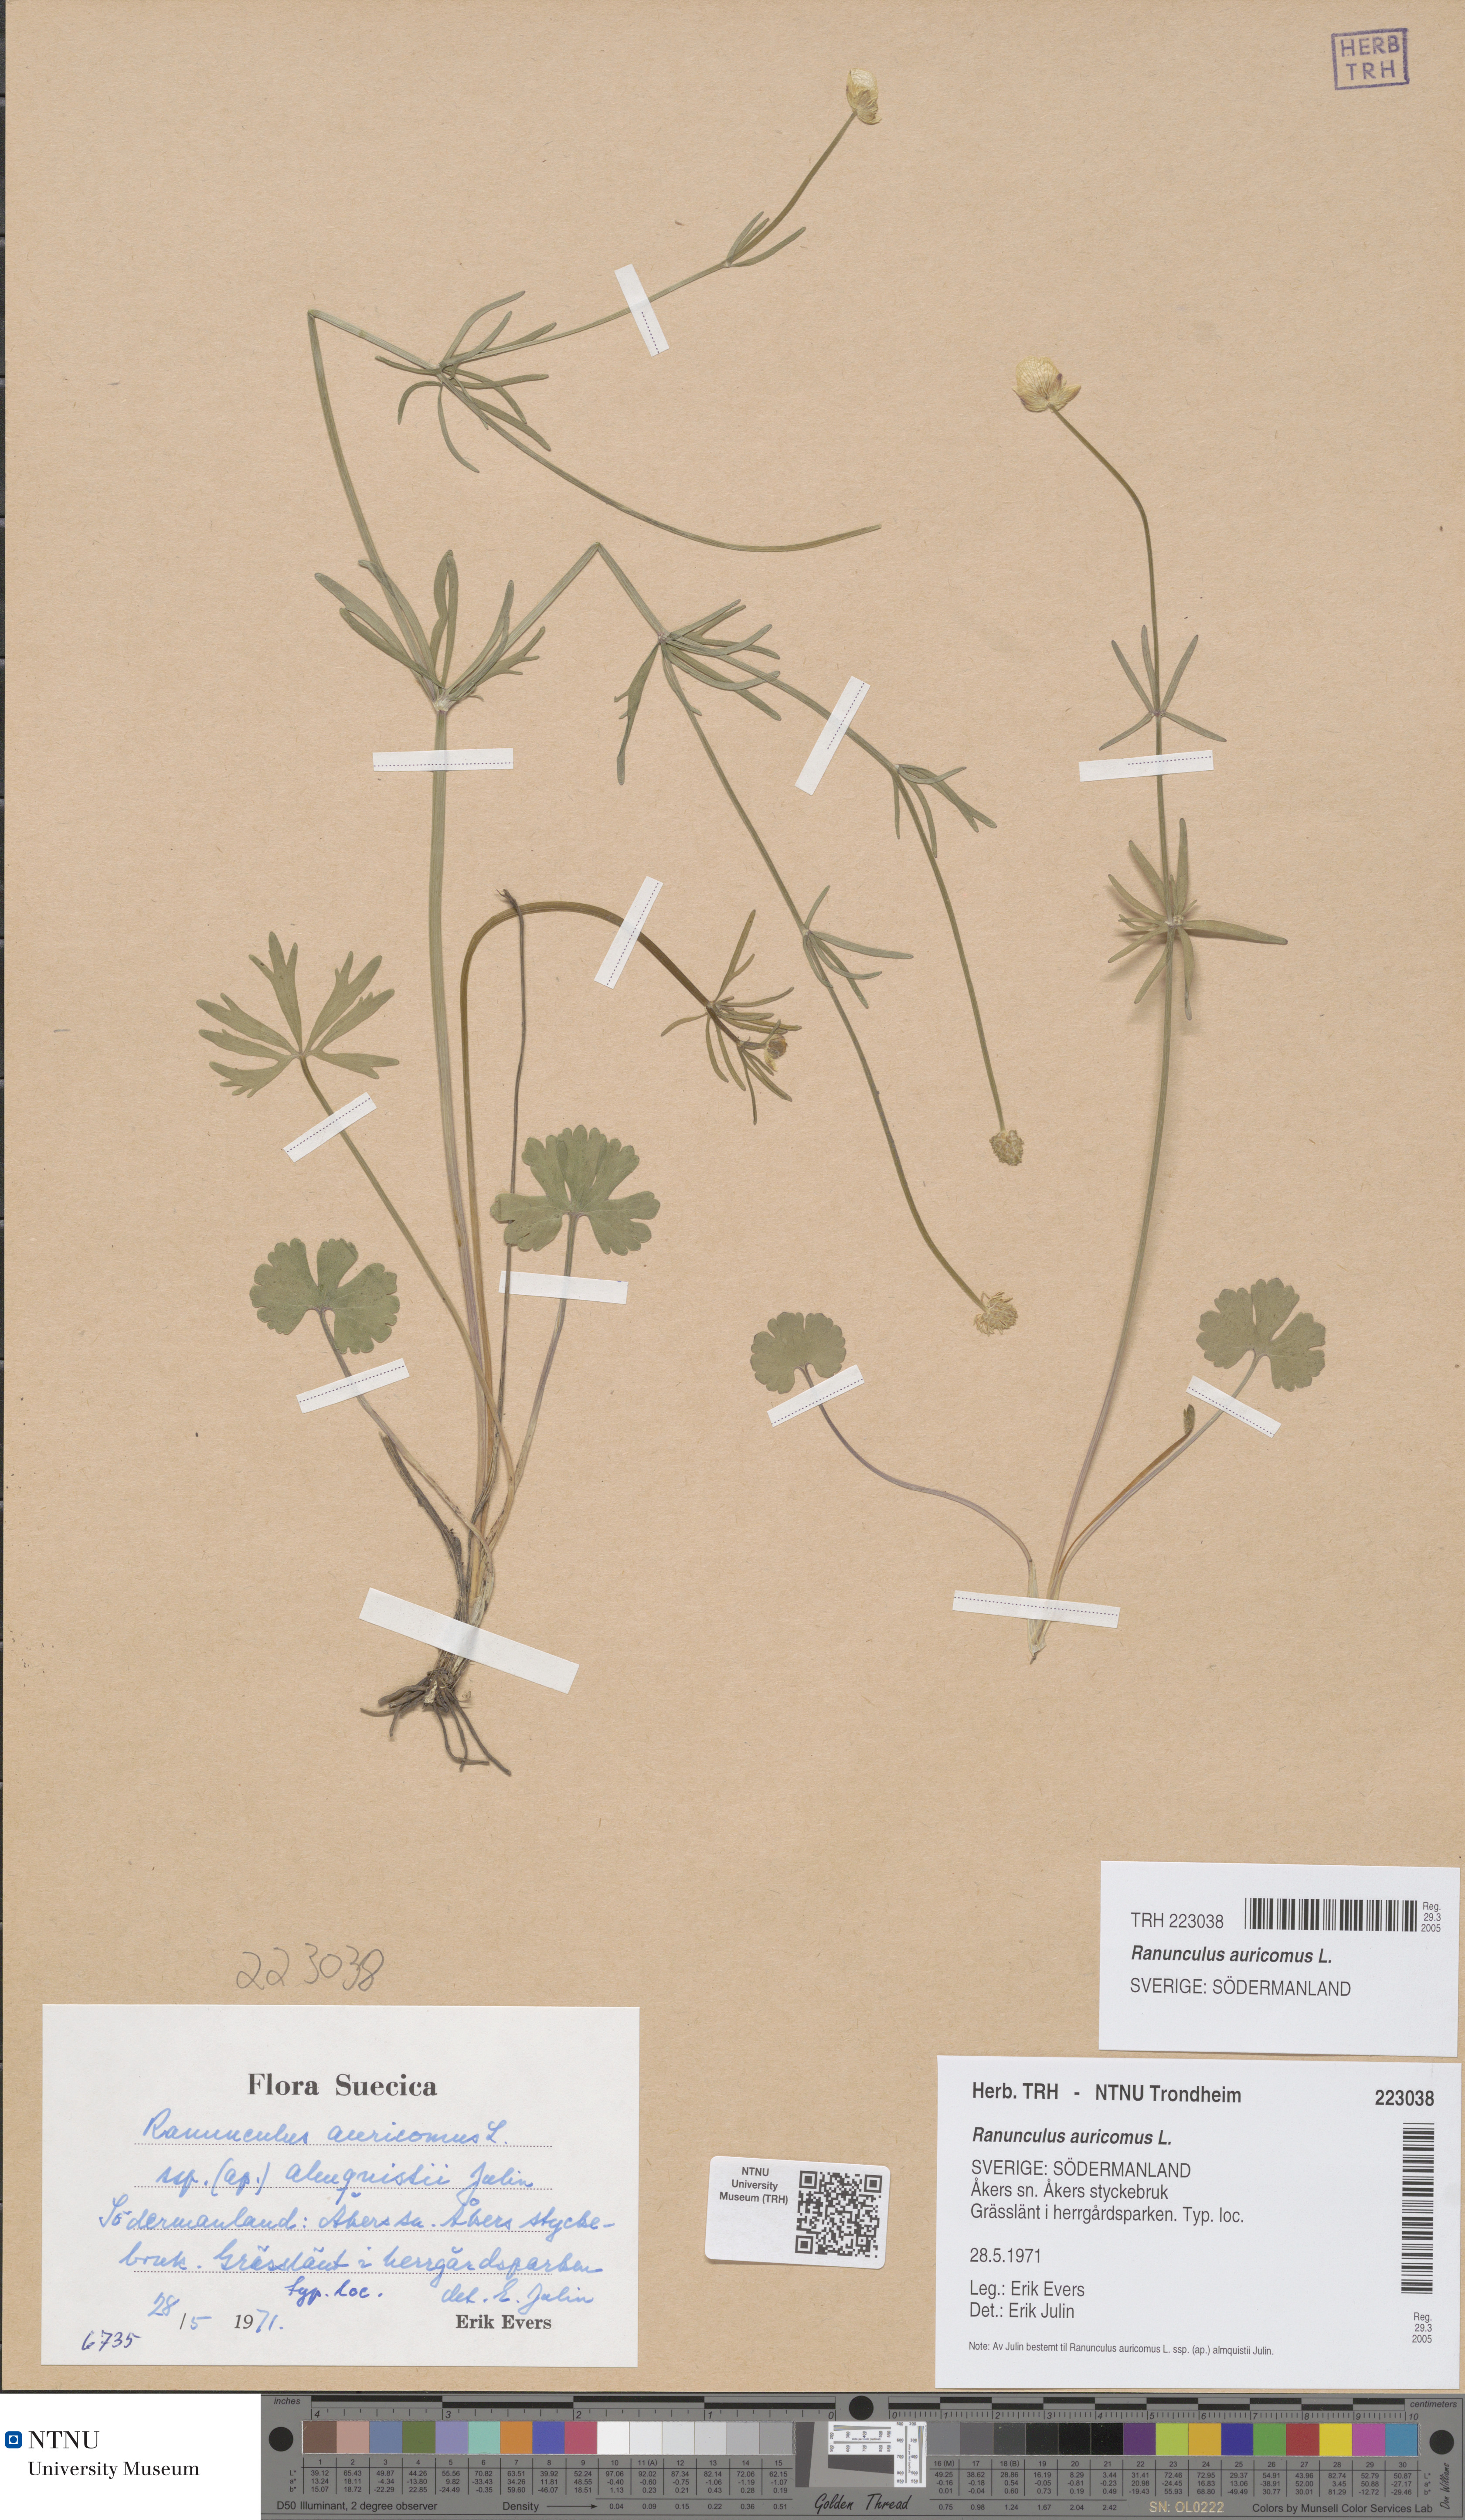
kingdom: Plantae
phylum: Tracheophyta
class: Magnoliopsida
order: Ranunculales
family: Ranunculaceae
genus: Ranunculus
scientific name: Ranunculus auricomus
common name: Goldilocks buttercup
